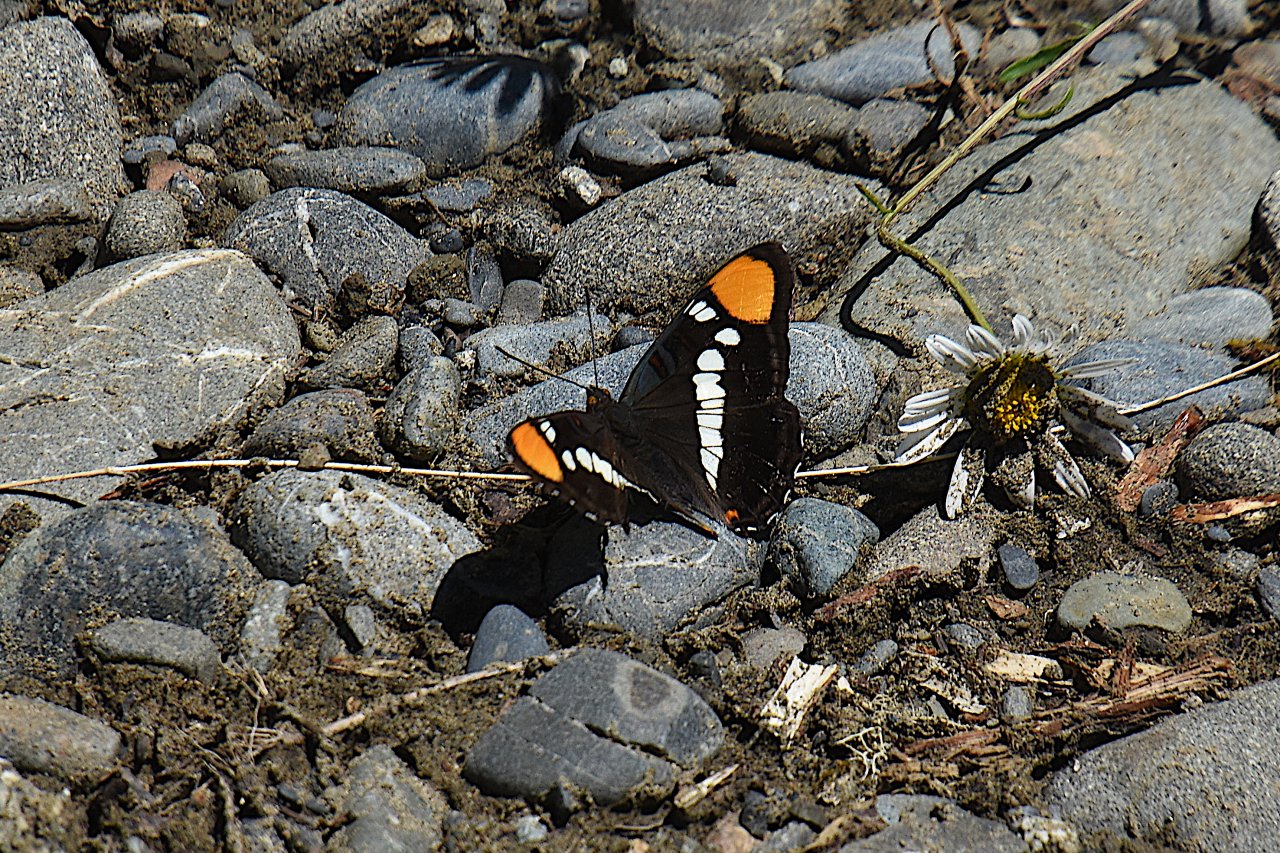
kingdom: Animalia
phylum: Arthropoda
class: Insecta
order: Lepidoptera
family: Nymphalidae
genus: Limenitis
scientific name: Limenitis bredowii
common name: California Sister
